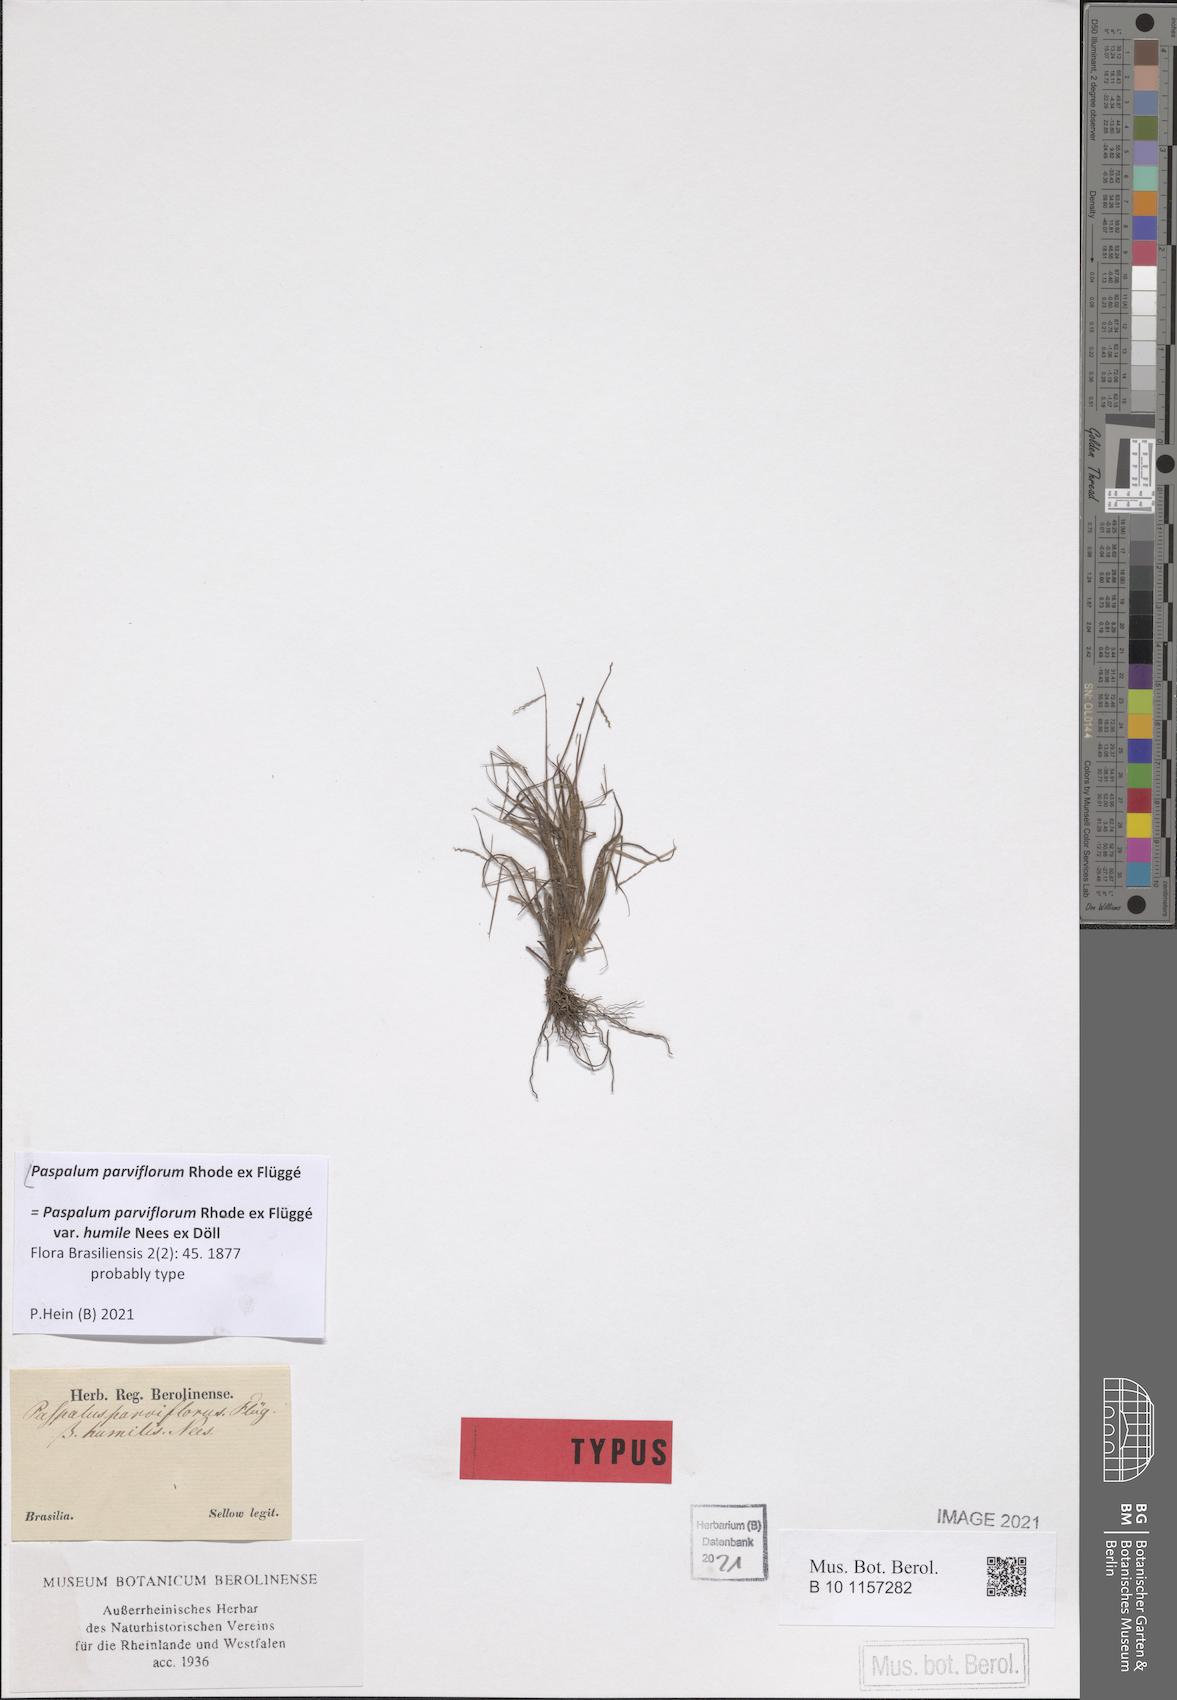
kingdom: Plantae
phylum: Tracheophyta
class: Liliopsida
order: Poales
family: Poaceae
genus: Paspalum
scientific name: Paspalum parviflorum
